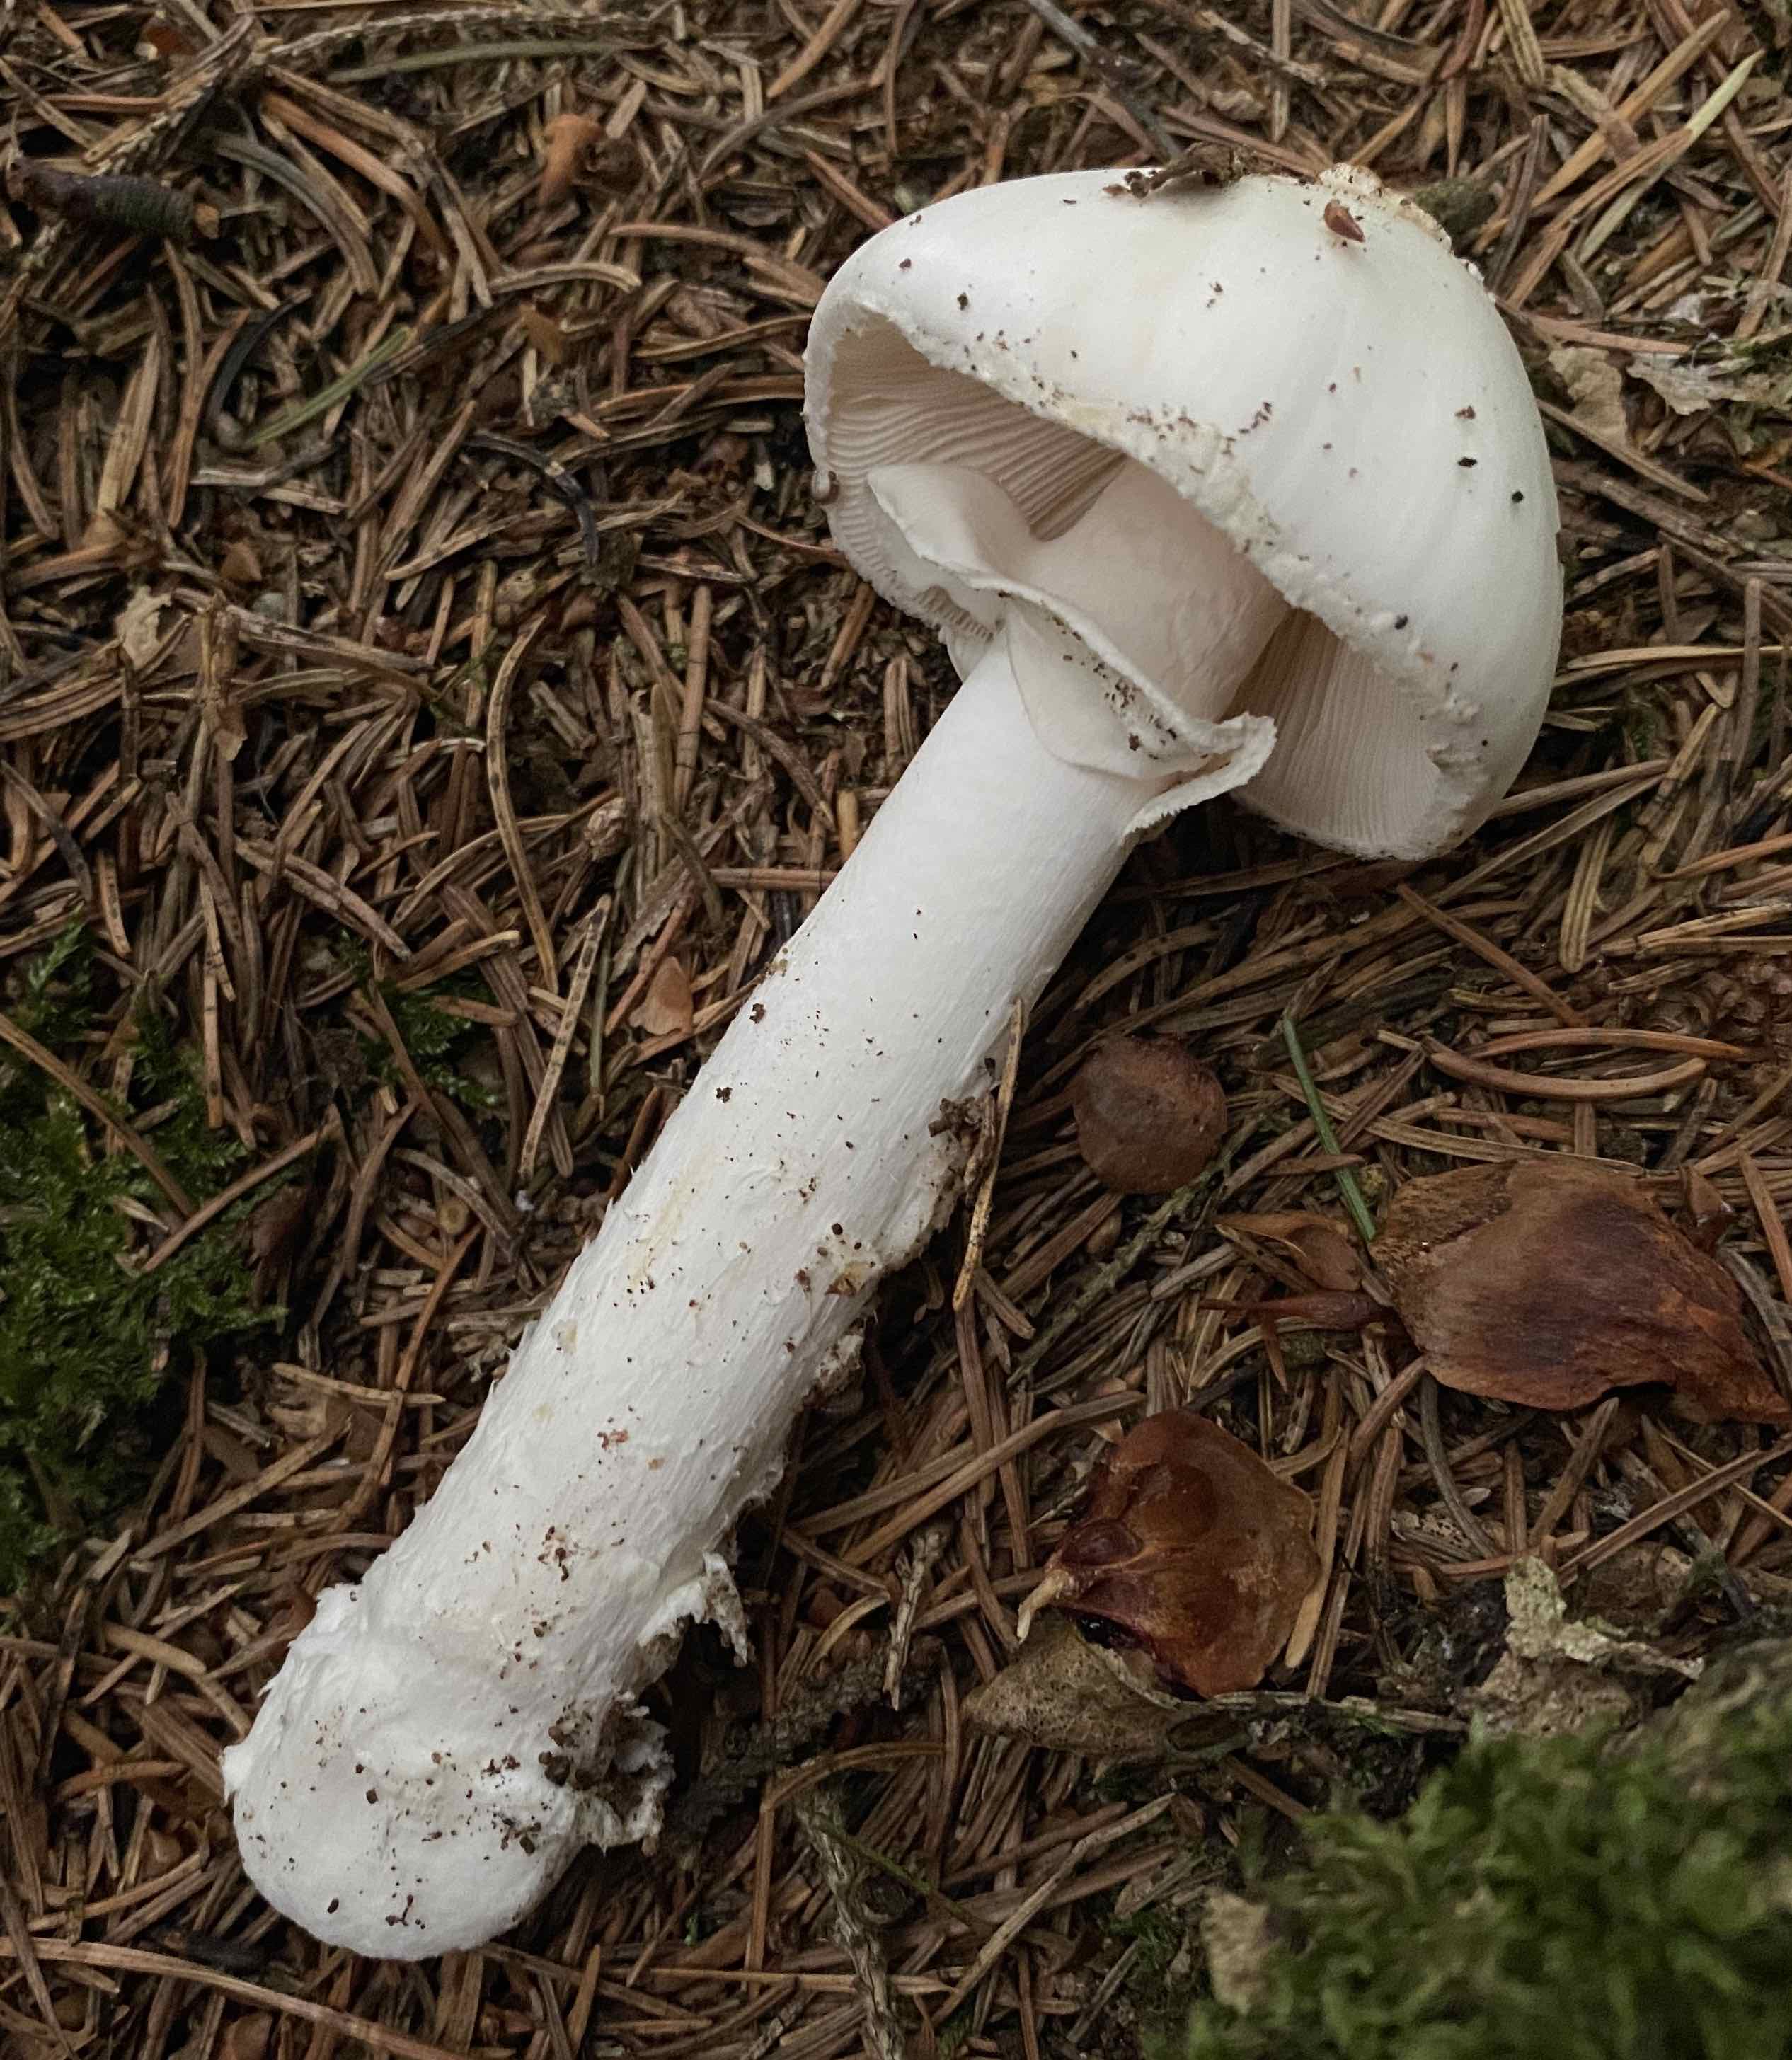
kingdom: Fungi
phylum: Basidiomycota
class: Agaricomycetes
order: Agaricales
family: Amanitaceae
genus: Amanita
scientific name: Amanita citrina
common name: kugleknoldet fluesvamp
